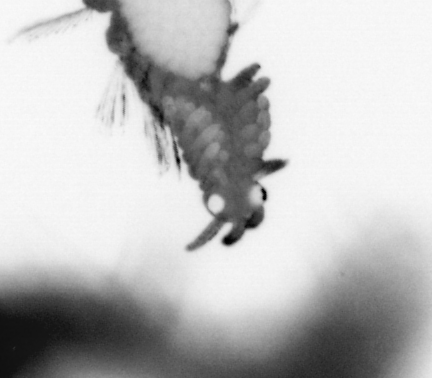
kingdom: Animalia
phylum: Annelida
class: Polychaeta
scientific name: Polychaeta
